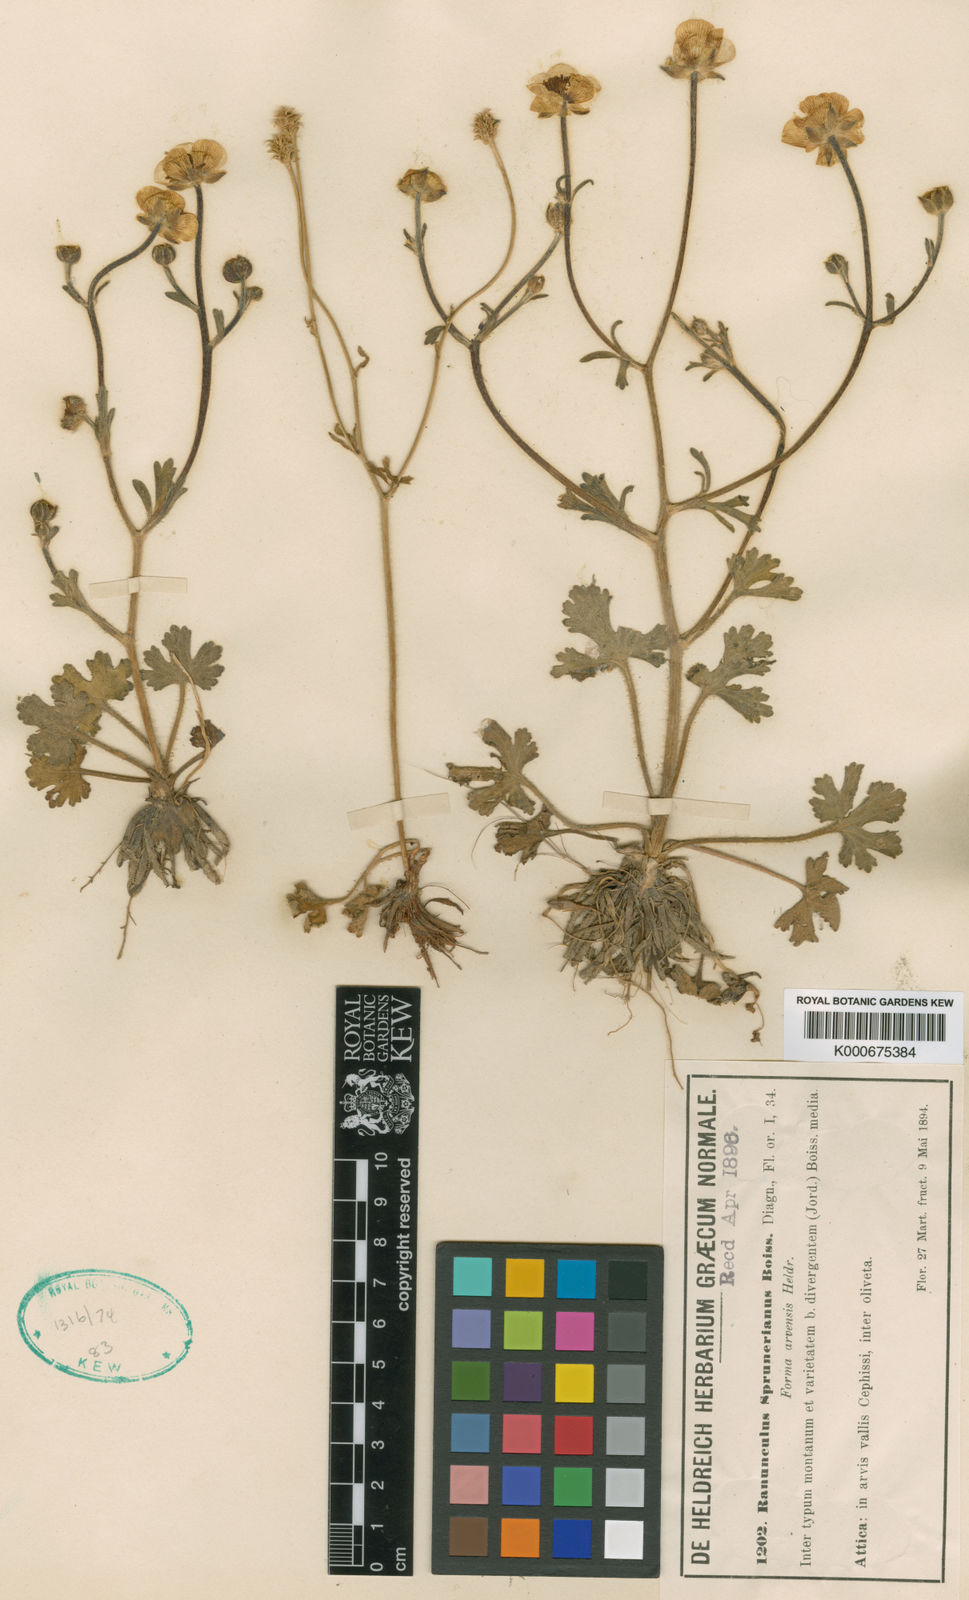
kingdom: Plantae
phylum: Tracheophyta
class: Magnoliopsida
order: Ranunculales
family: Ranunculaceae
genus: Ranunculus
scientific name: Ranunculus sprunerianus
